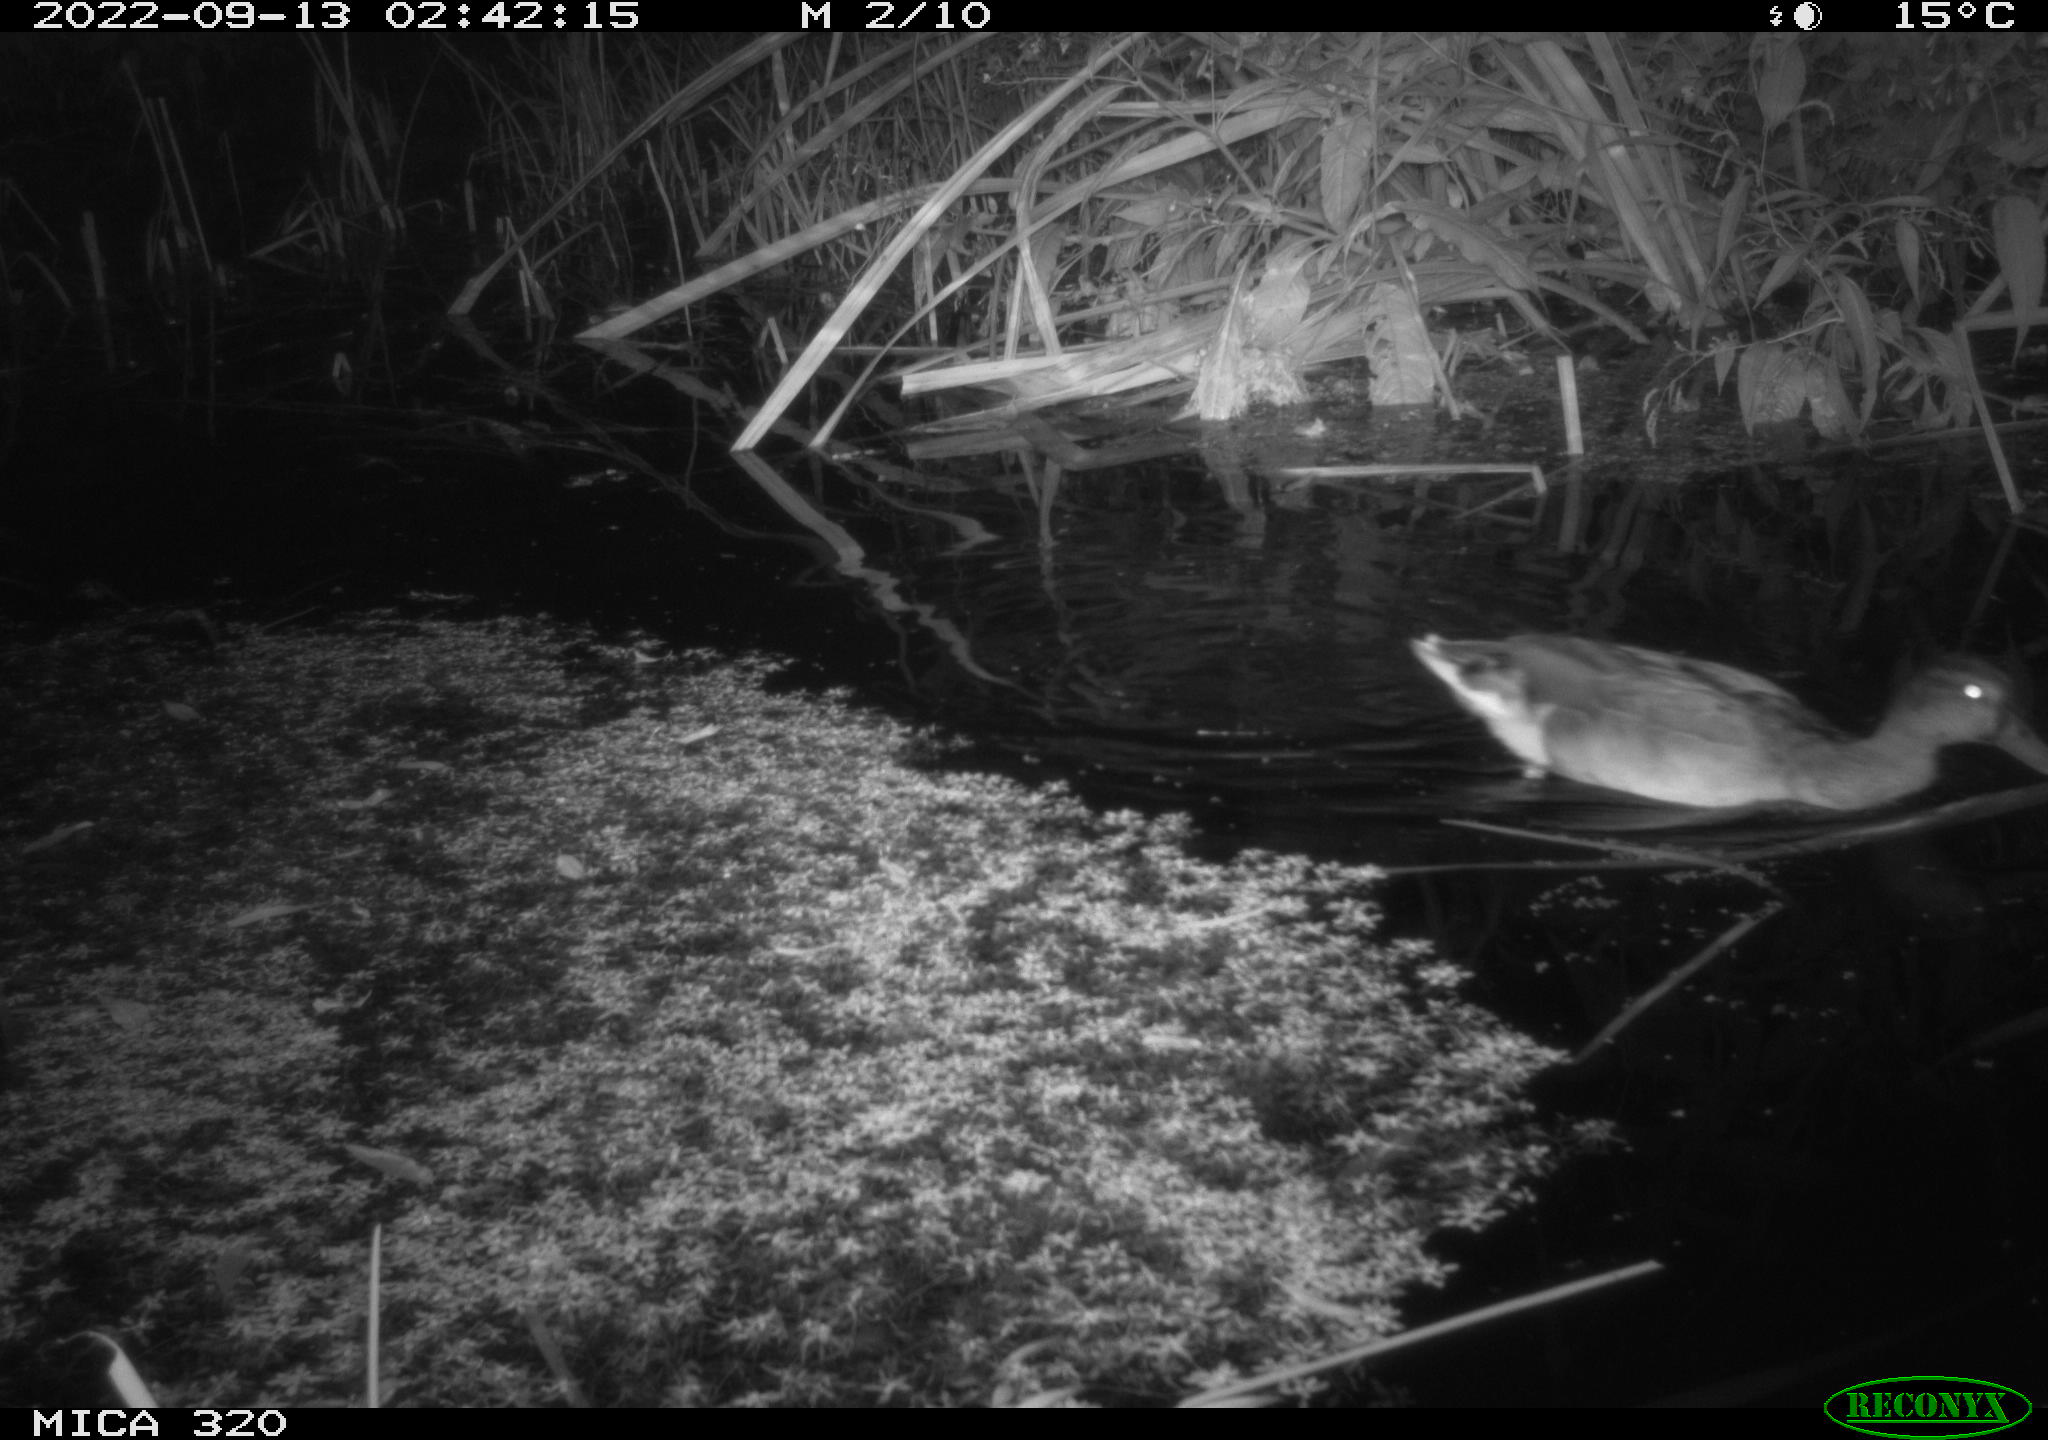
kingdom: Animalia
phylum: Chordata
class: Aves
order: Anseriformes
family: Anatidae
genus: Anas
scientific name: Anas platyrhynchos
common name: Mallard
